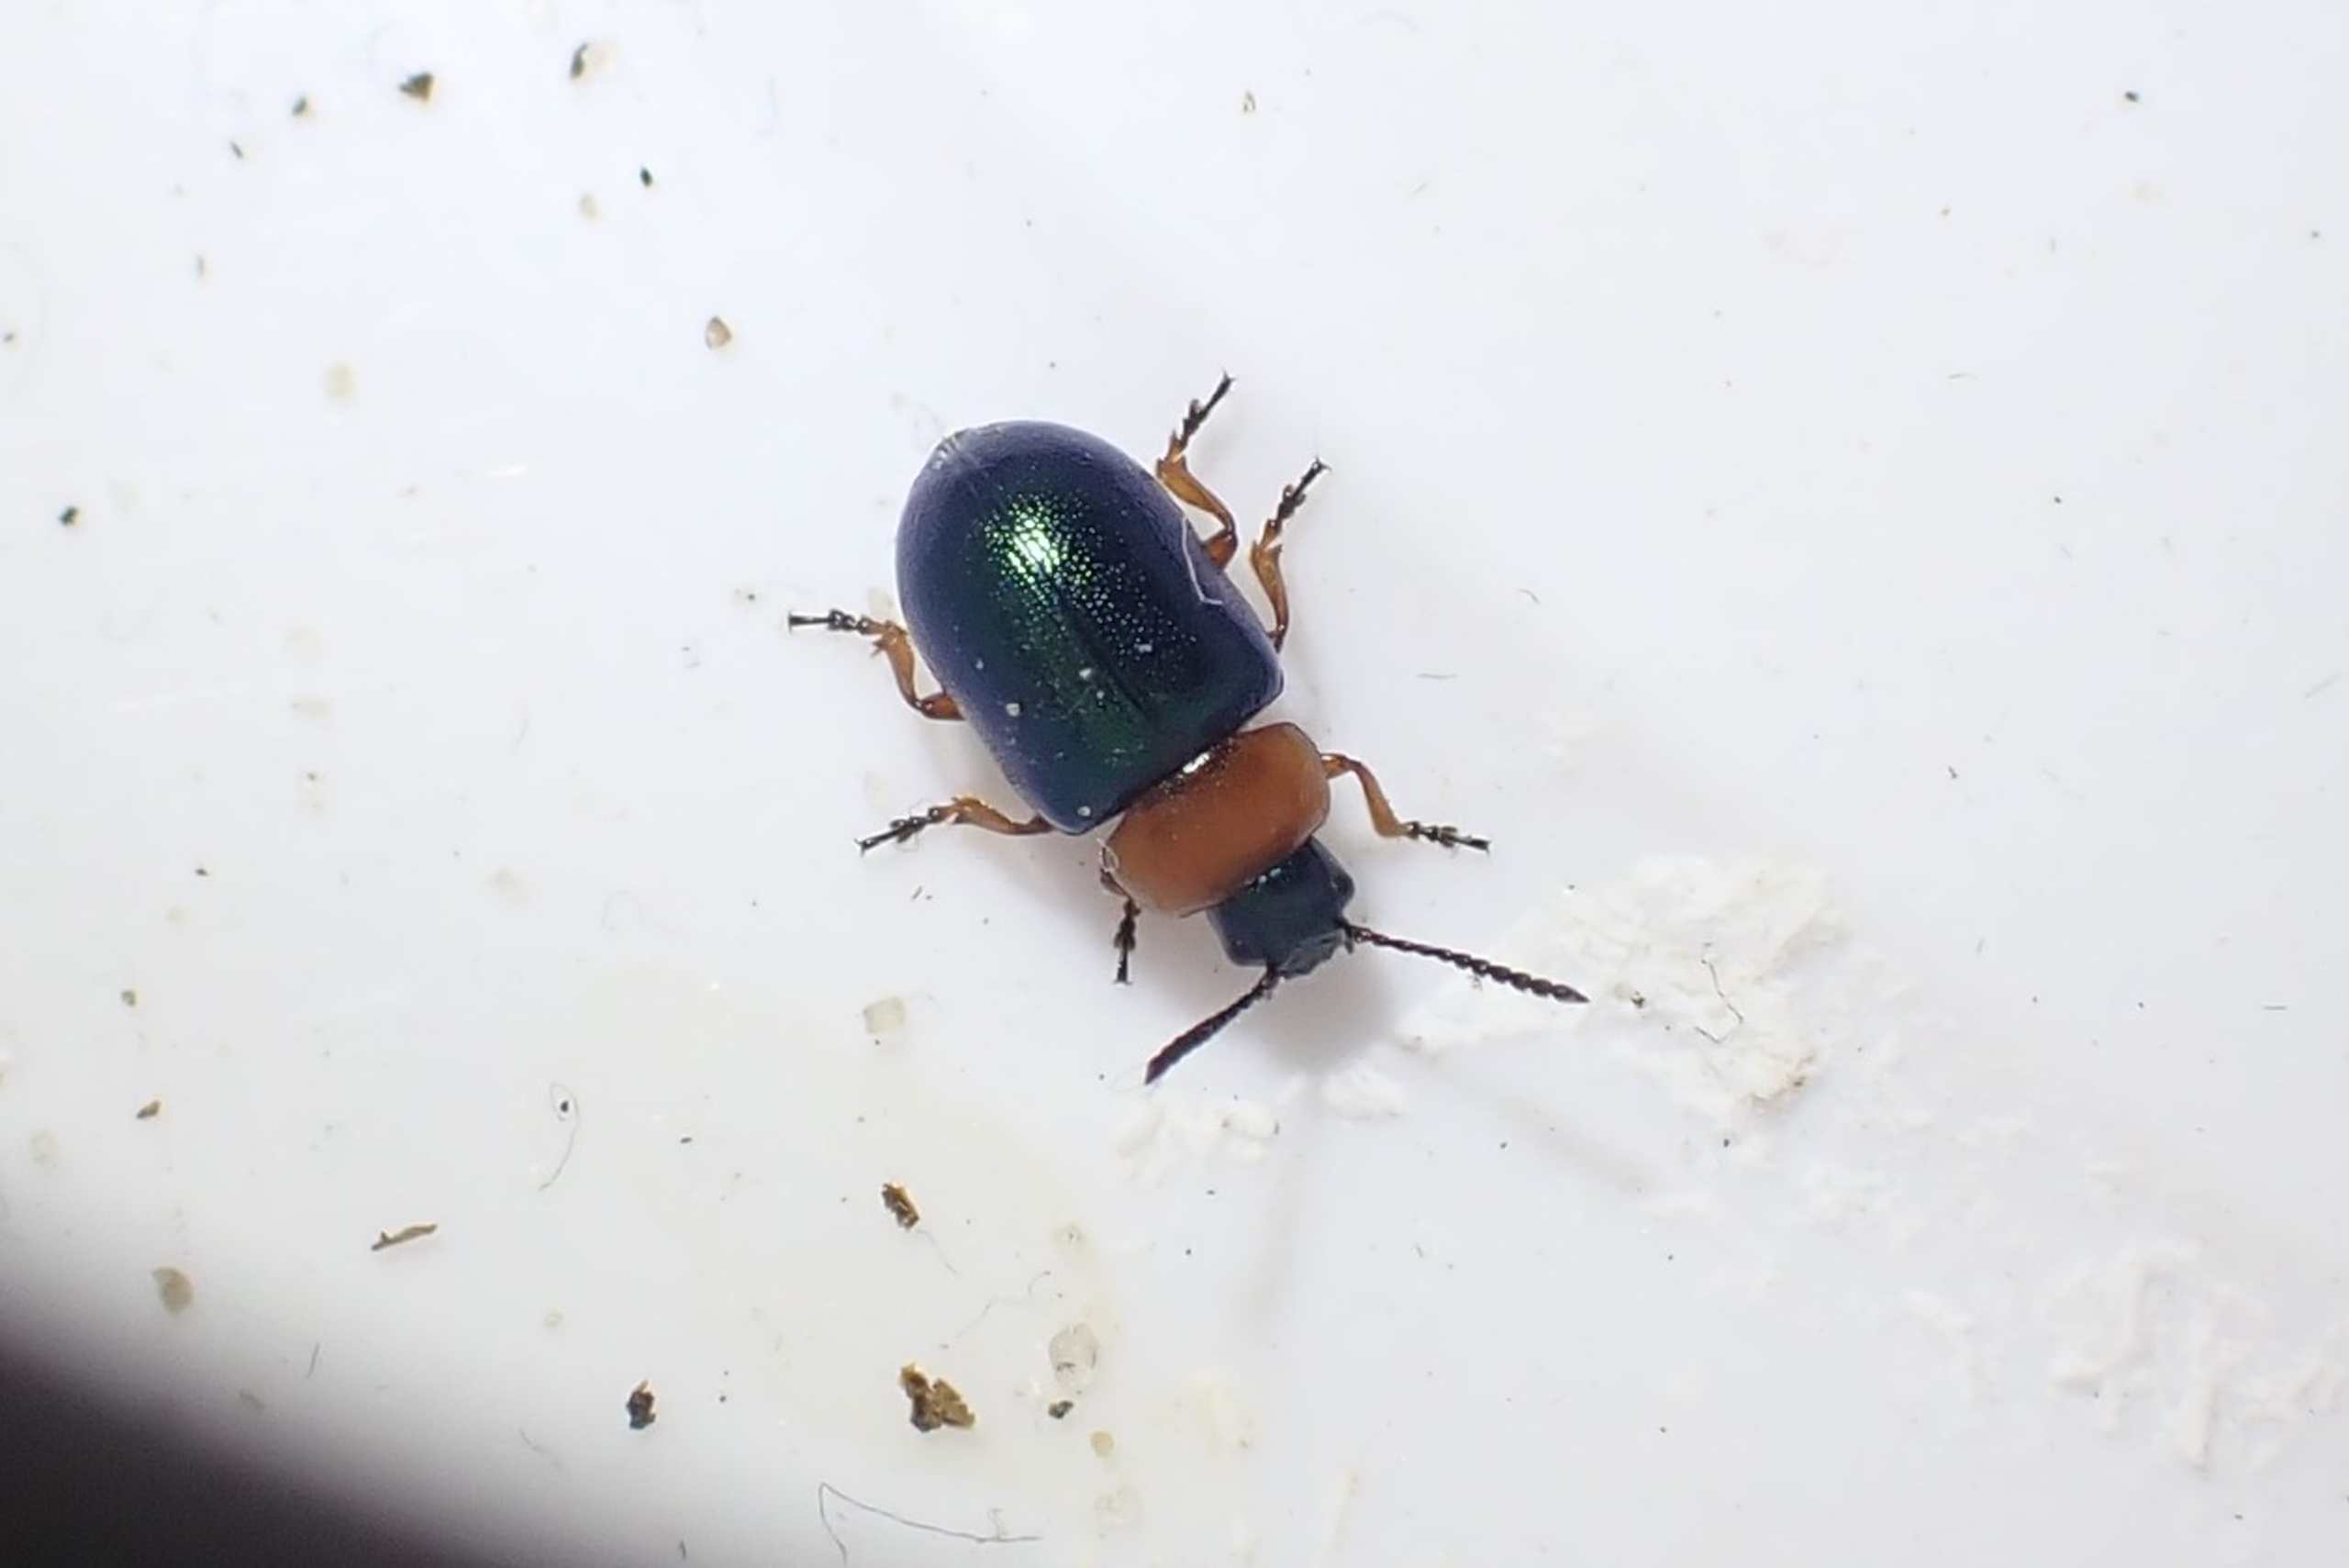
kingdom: Animalia
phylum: Arthropoda
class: Insecta
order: Coleoptera
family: Chrysomelidae
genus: Gastrophysa
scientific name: Gastrophysa polygoni
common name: Pileurtbladbille
